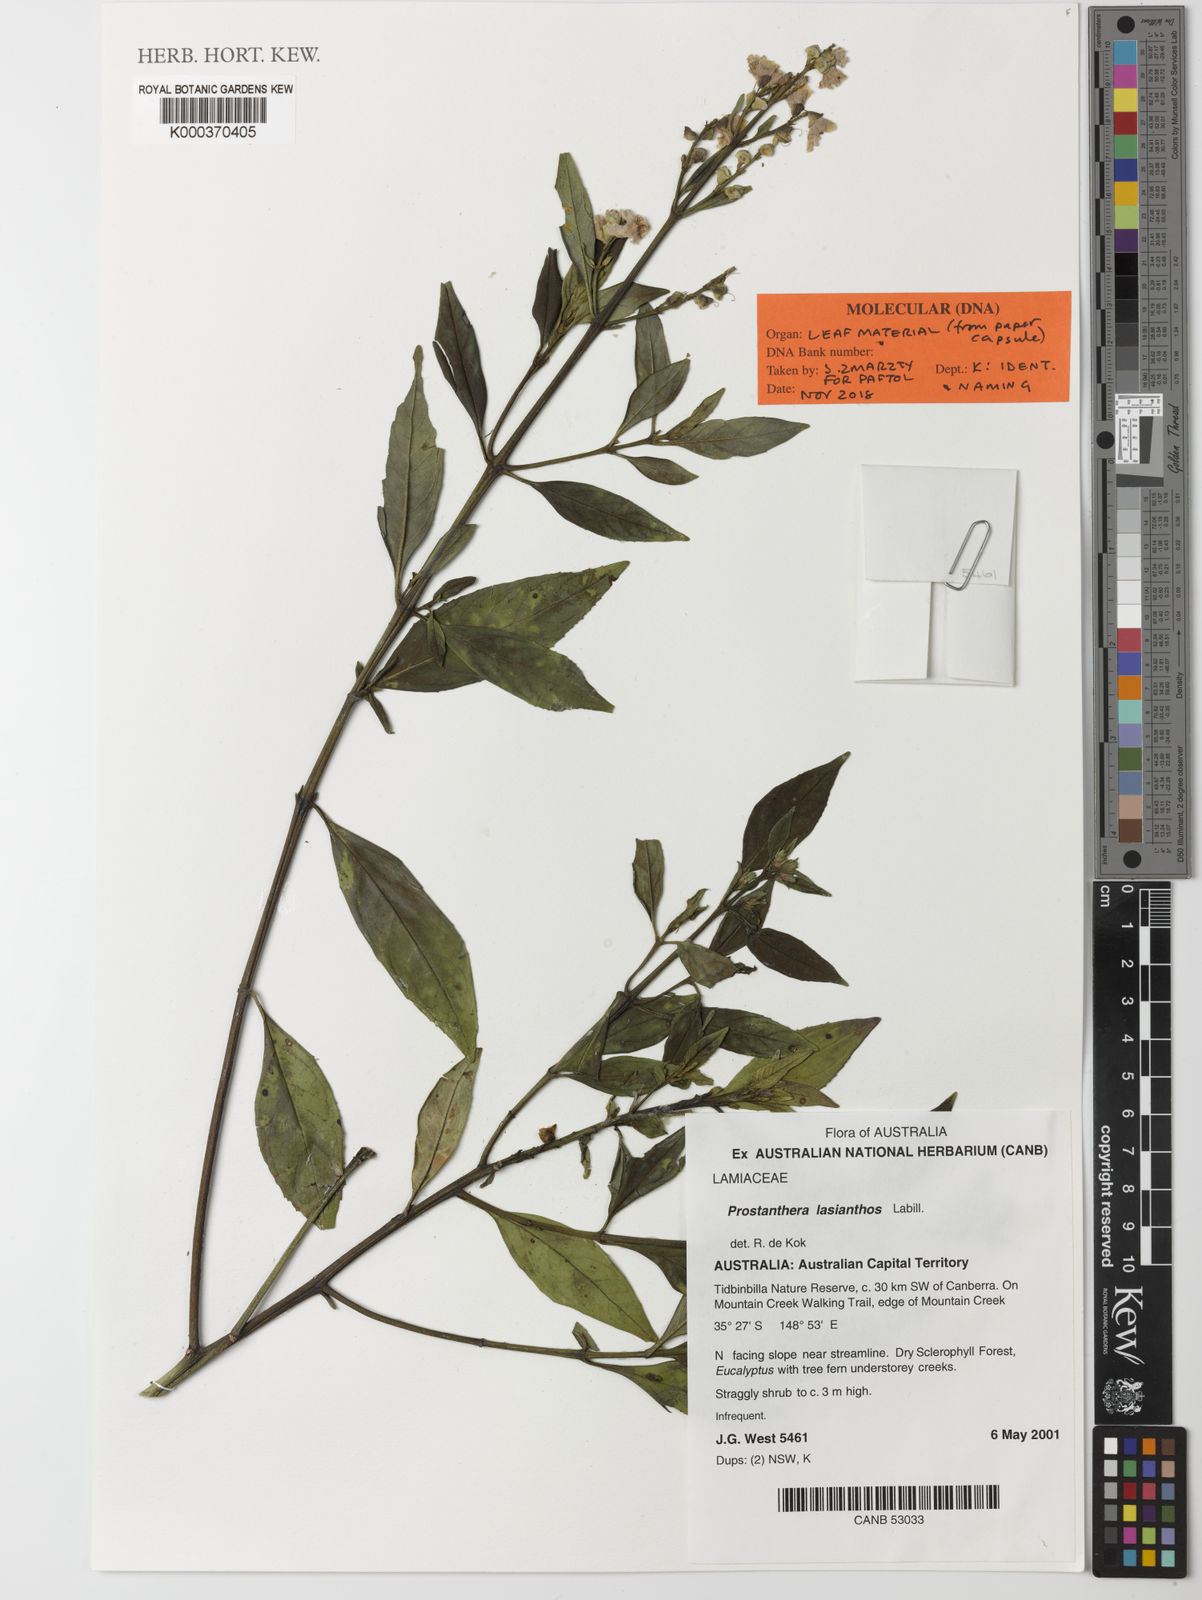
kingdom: Plantae
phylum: Tracheophyta
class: Magnoliopsida
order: Lamiales
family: Lamiaceae
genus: Prostanthera
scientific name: Prostanthera lasianthos
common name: Mountain-lilac
